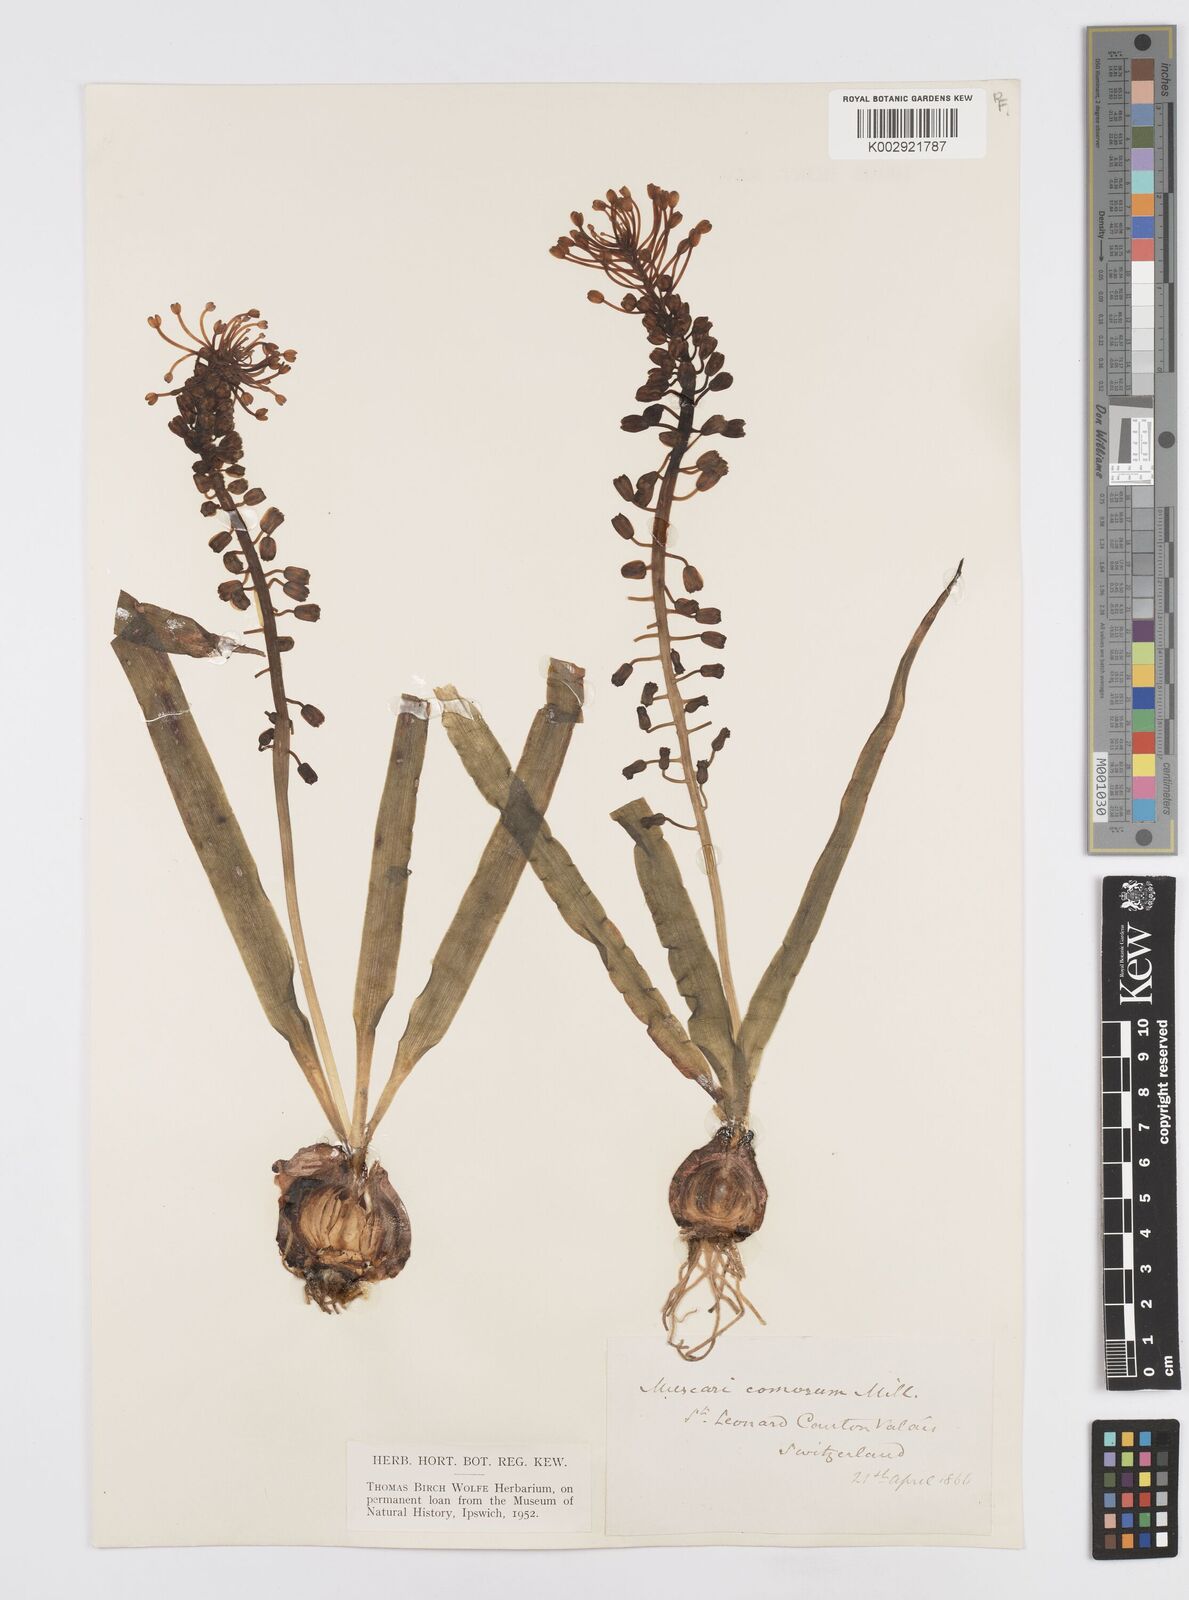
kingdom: Plantae
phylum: Tracheophyta
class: Liliopsida
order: Asparagales
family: Asparagaceae
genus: Muscari
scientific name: Muscari comosum
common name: Tassel hyacinth
